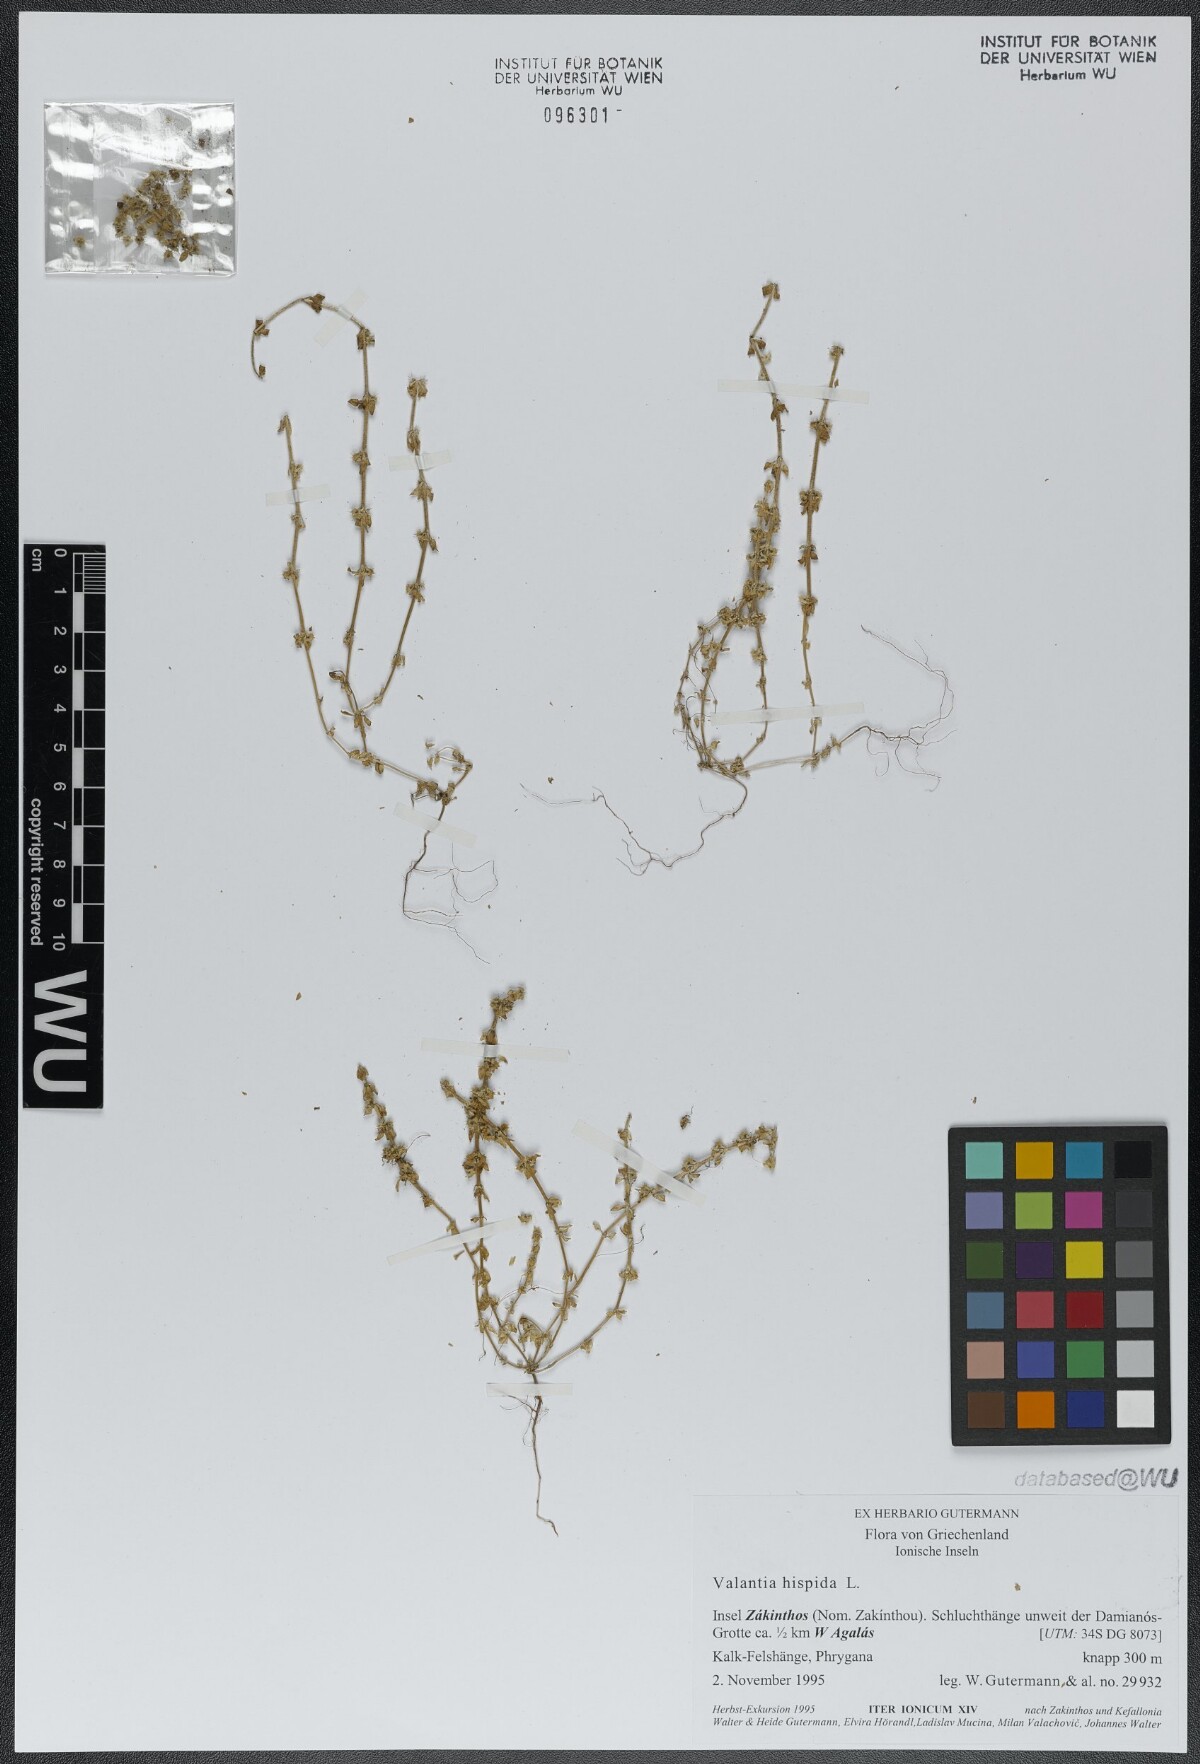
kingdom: Plantae
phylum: Tracheophyta
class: Magnoliopsida
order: Gentianales
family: Rubiaceae
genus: Valantia
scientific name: Valantia hispida
